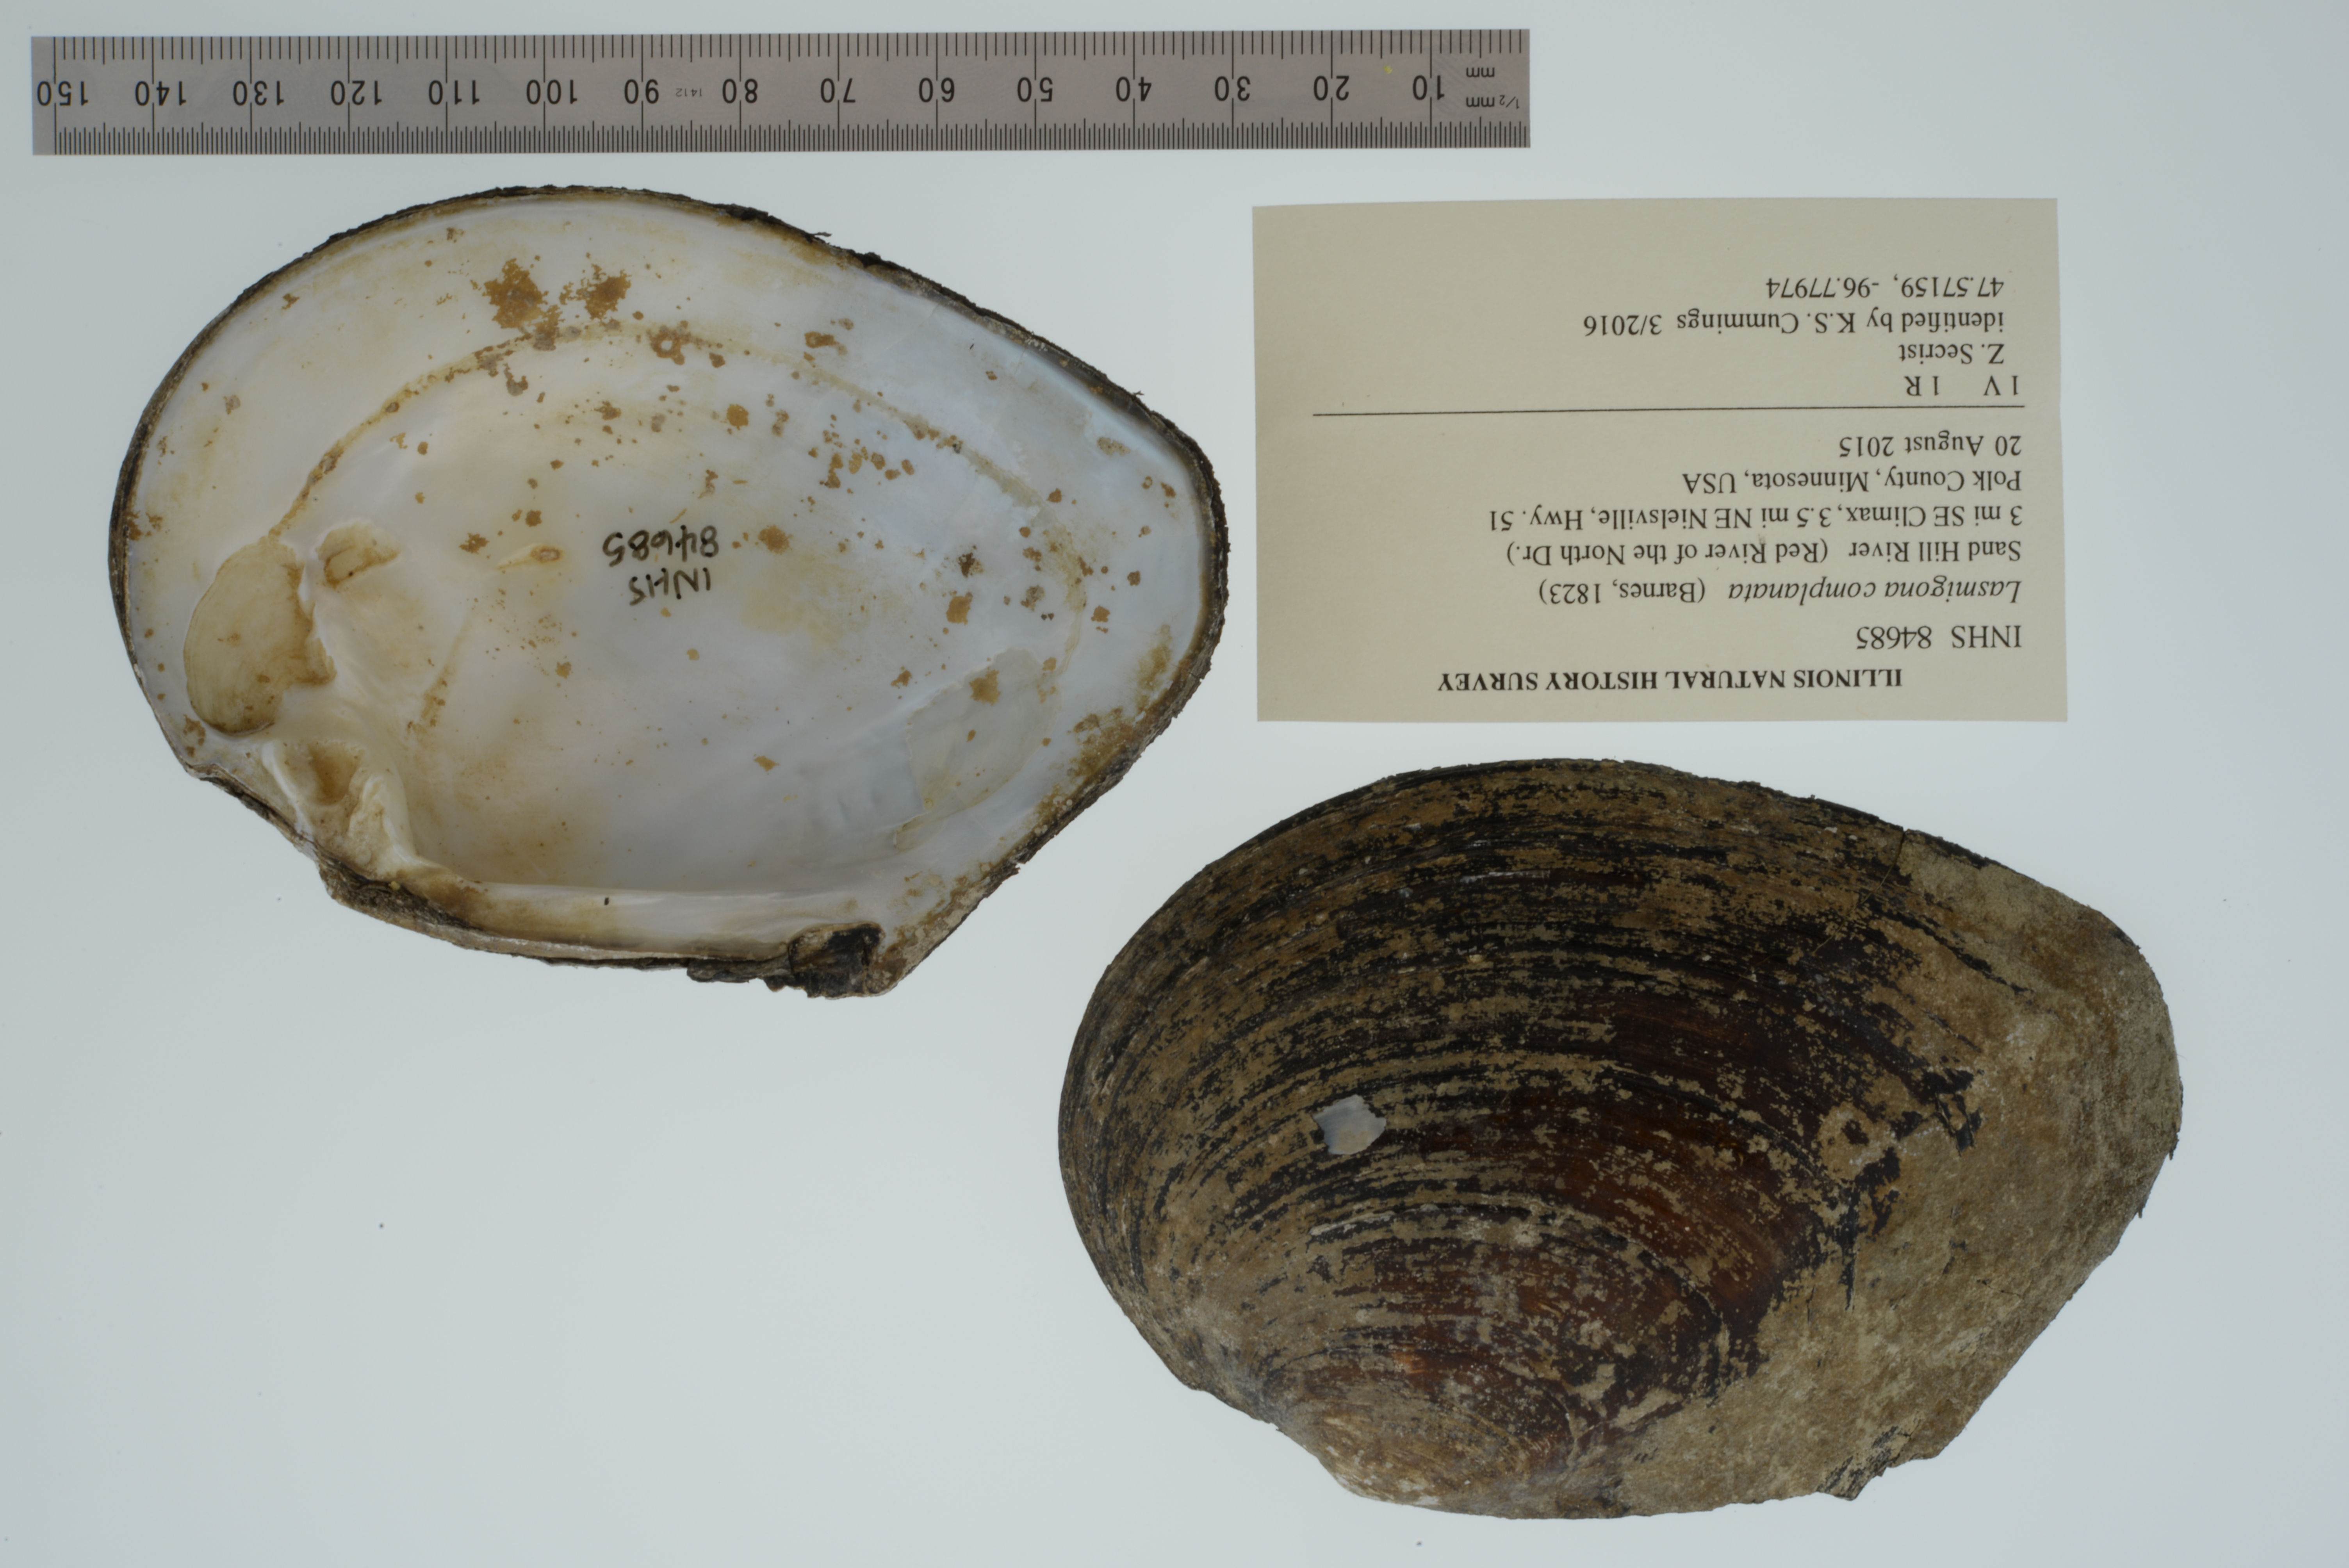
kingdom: Animalia
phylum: Mollusca
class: Bivalvia
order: Unionida
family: Unionidae
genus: Lasmigona
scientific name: Lasmigona complanata
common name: White heelsplitter
